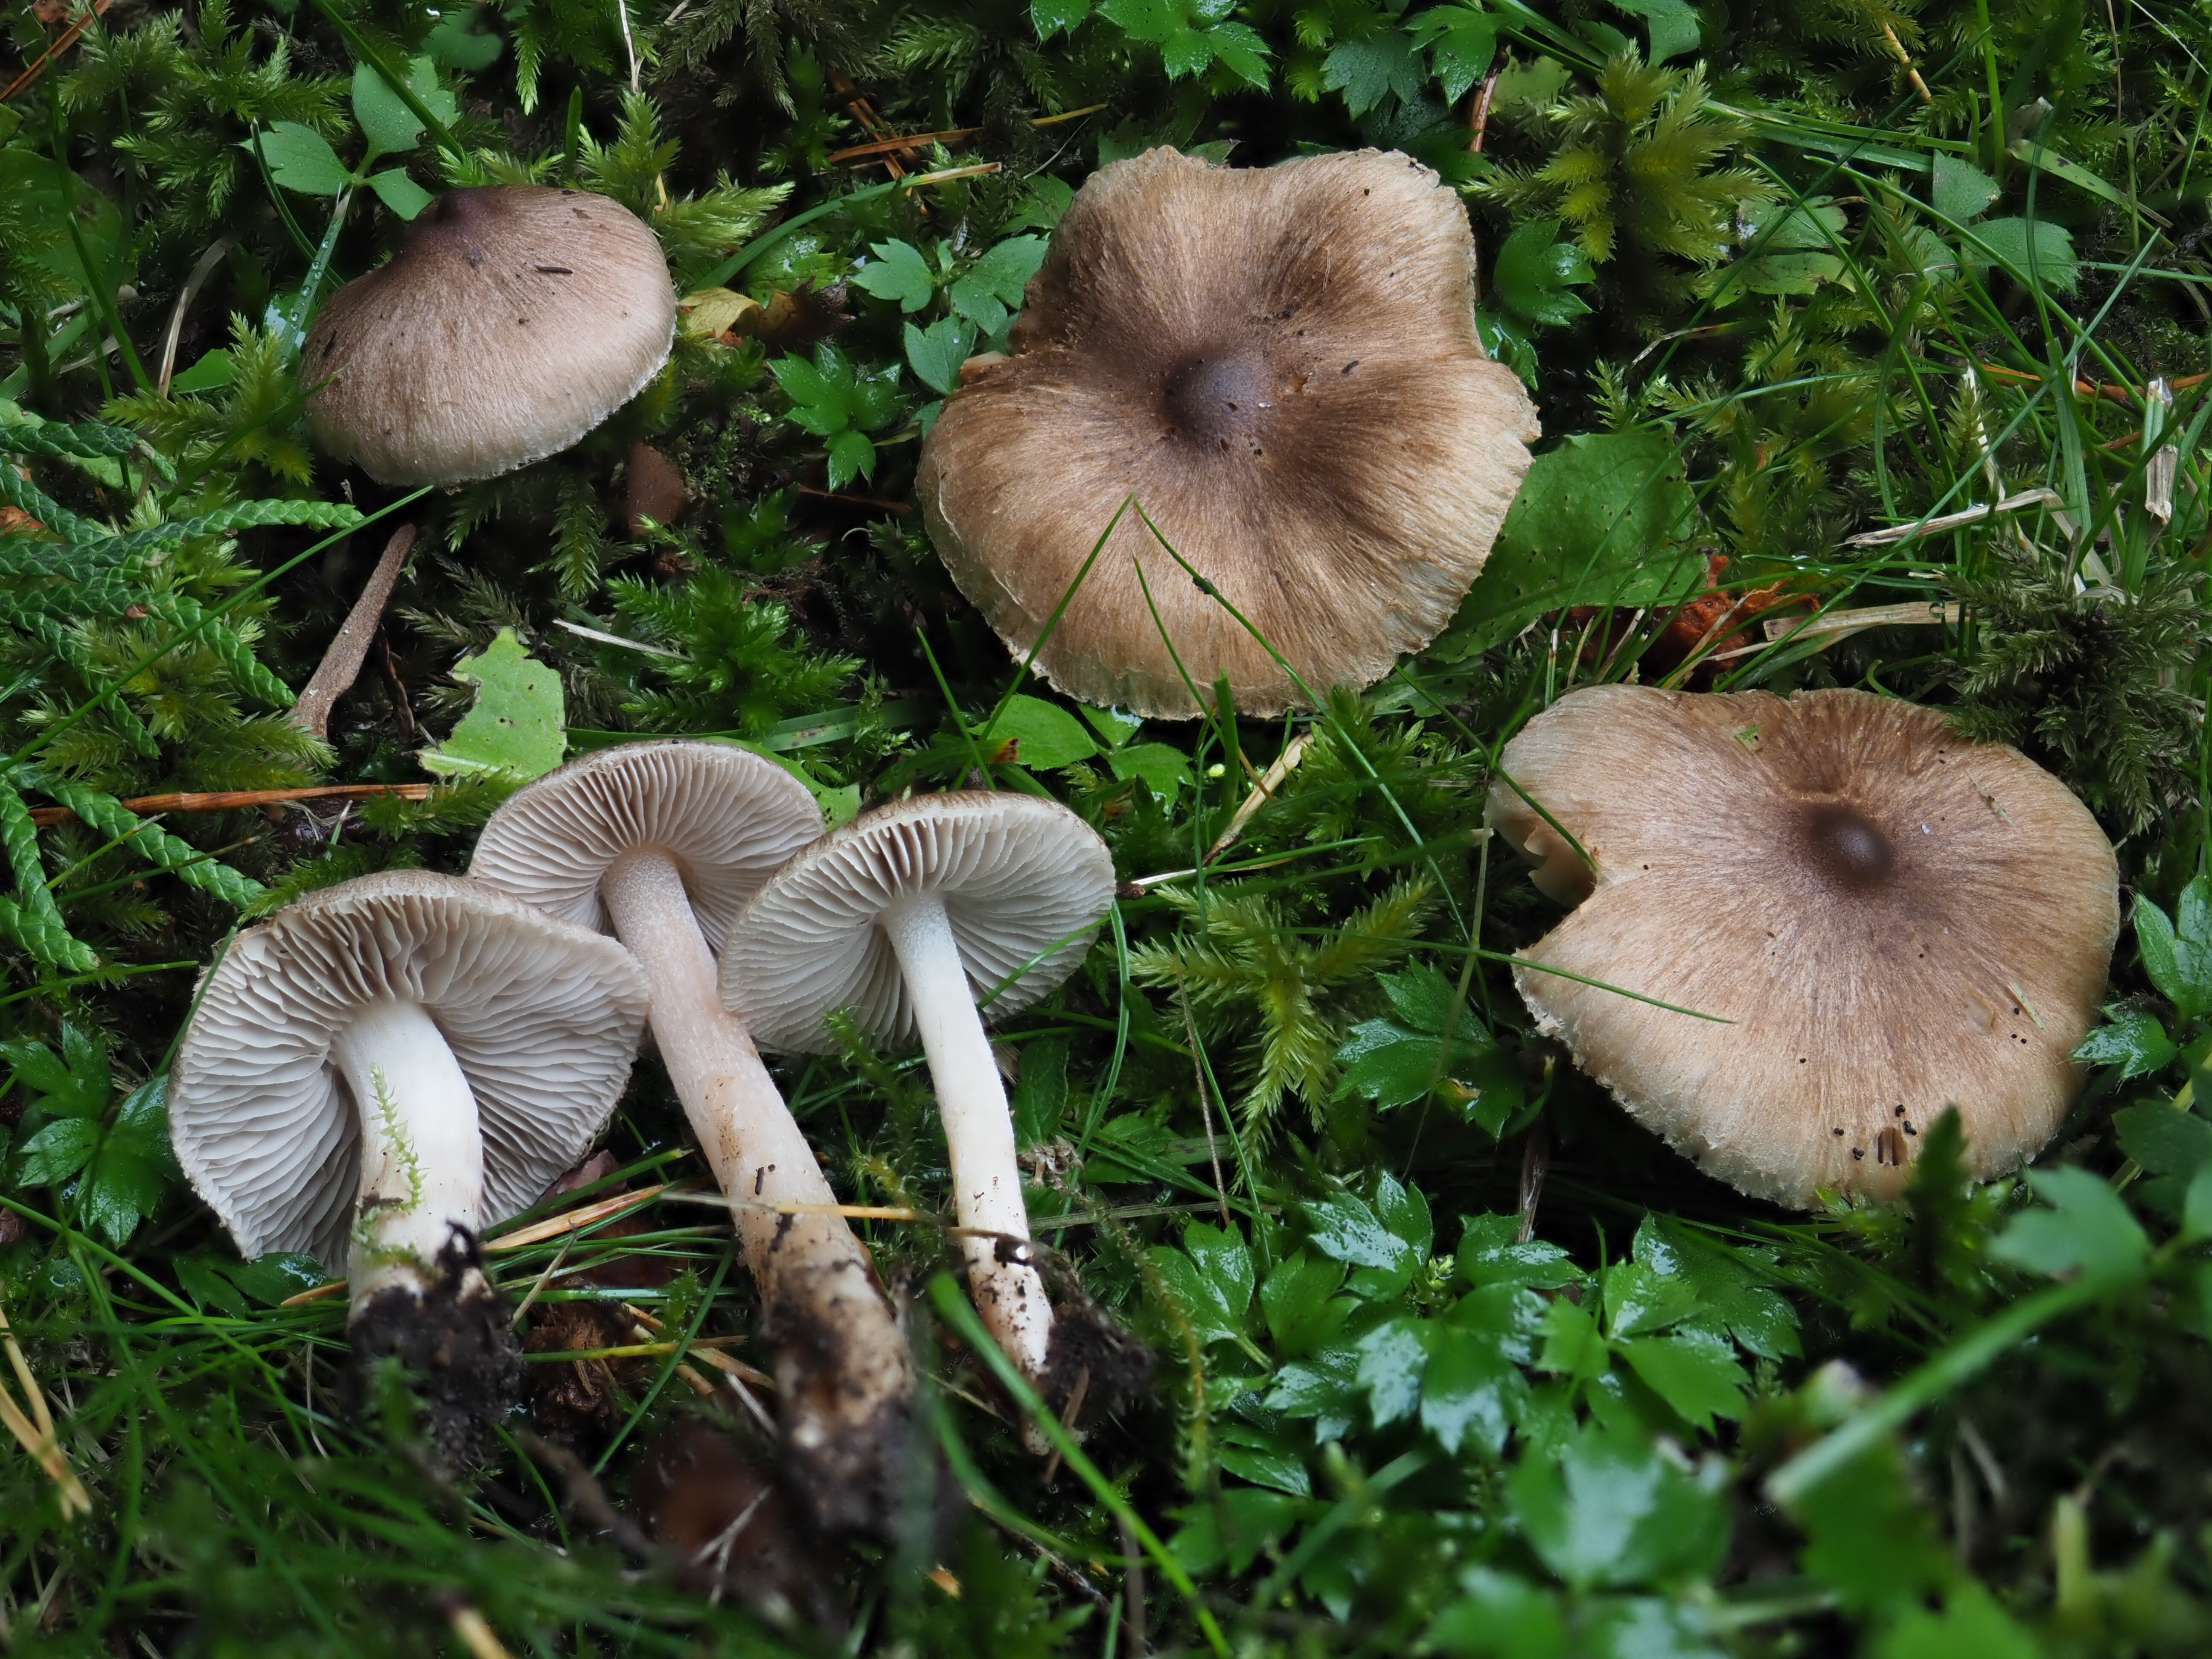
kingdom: Fungi
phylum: Basidiomycota
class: Agaricomycetes
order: Agaricales
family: Inocybaceae
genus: Inocybe
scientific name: Inocybe
